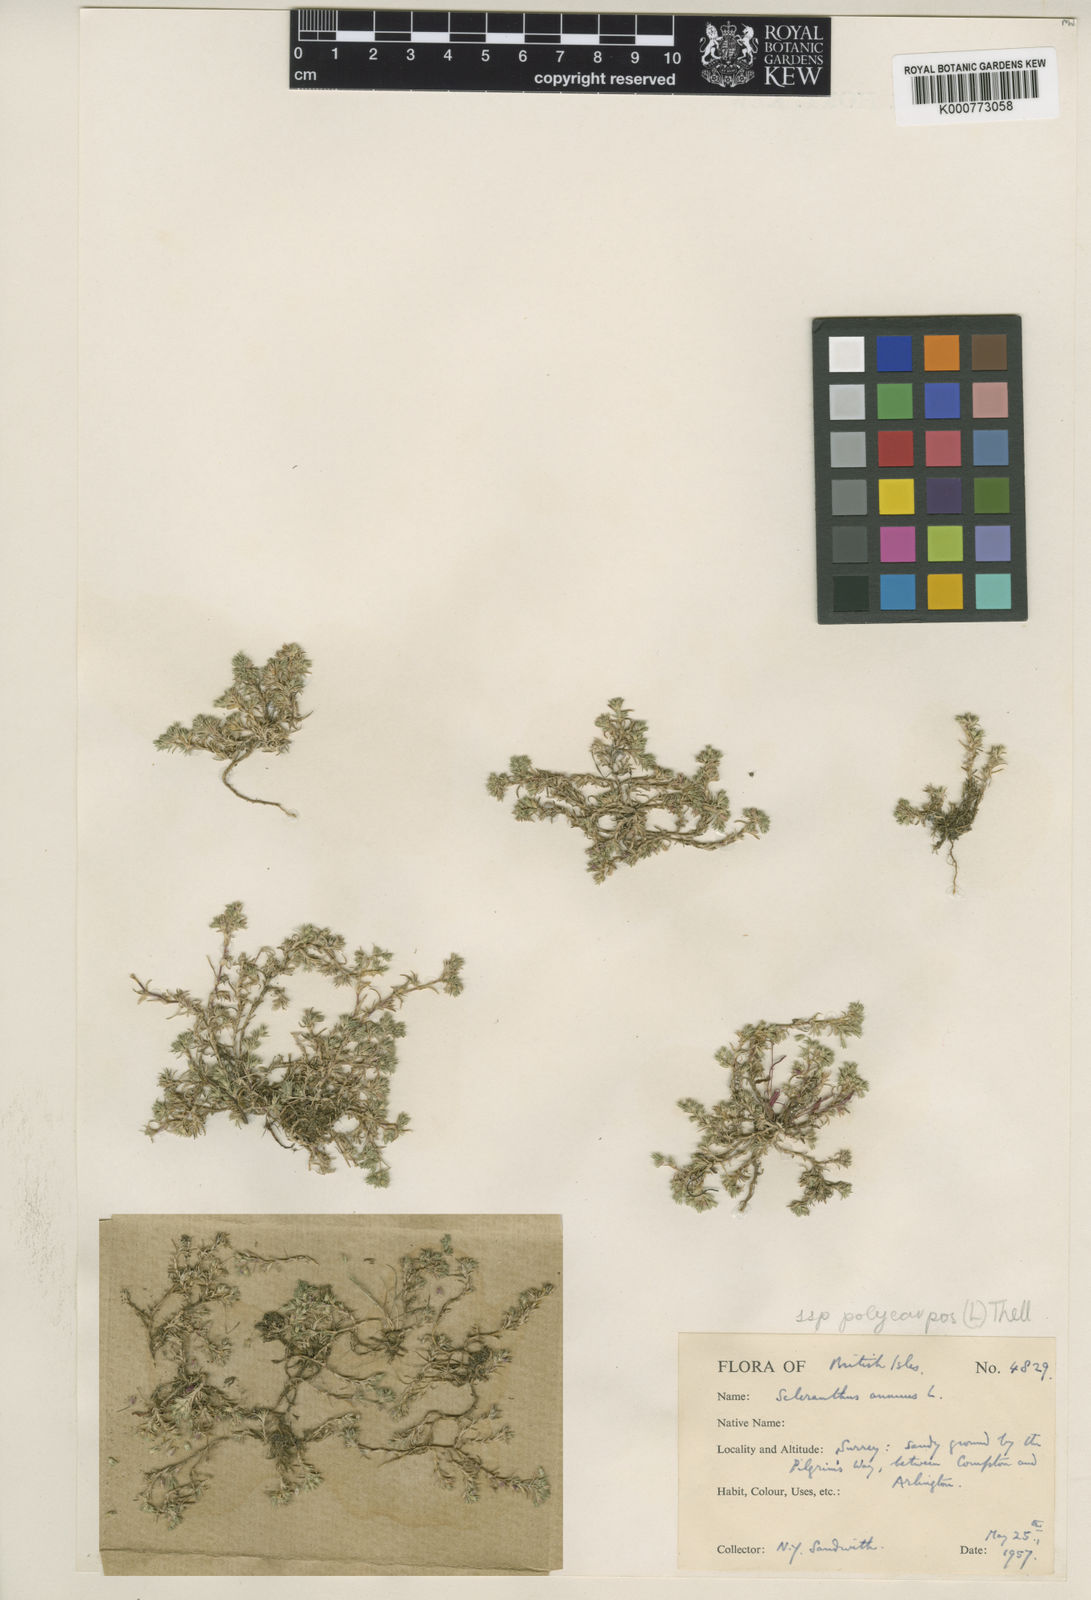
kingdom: Plantae
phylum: Tracheophyta
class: Magnoliopsida
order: Caryophyllales
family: Caryophyllaceae
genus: Scleranthus
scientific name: Scleranthus annuus
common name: Annual knawel
